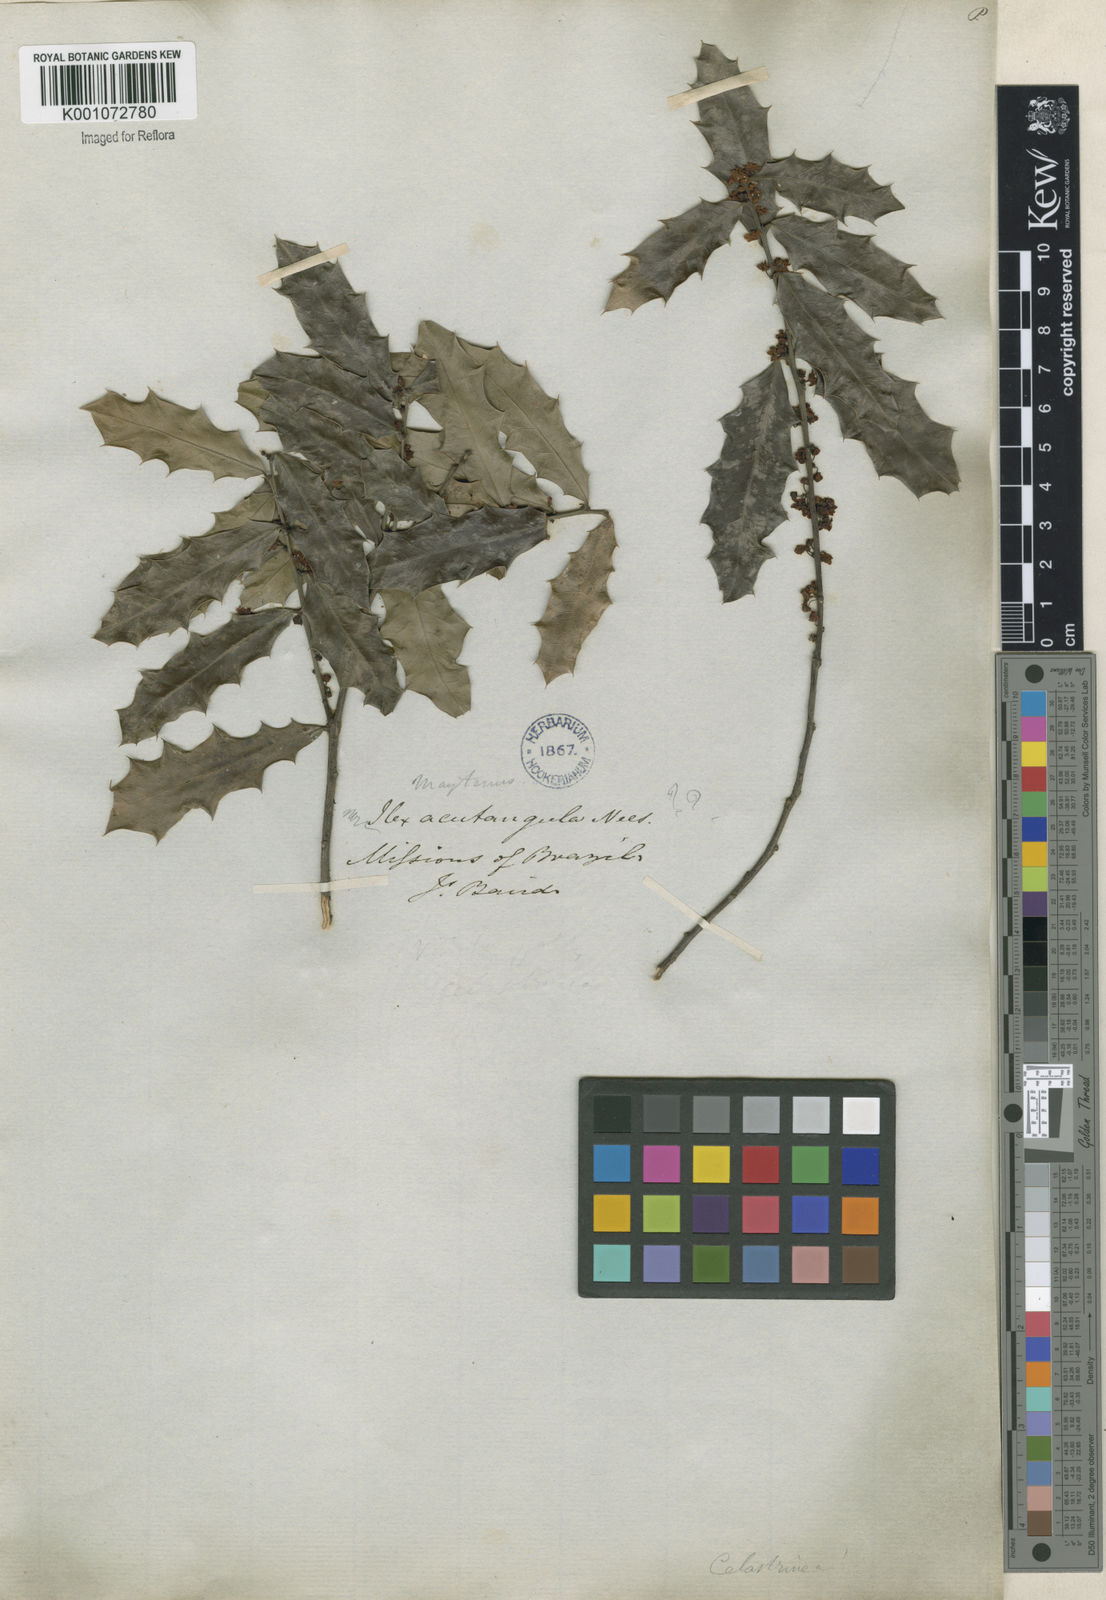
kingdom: Plantae
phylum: Tracheophyta
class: Magnoliopsida
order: Celastrales
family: Celastraceae
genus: Monteverdia
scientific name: Monteverdia ilicifolia
